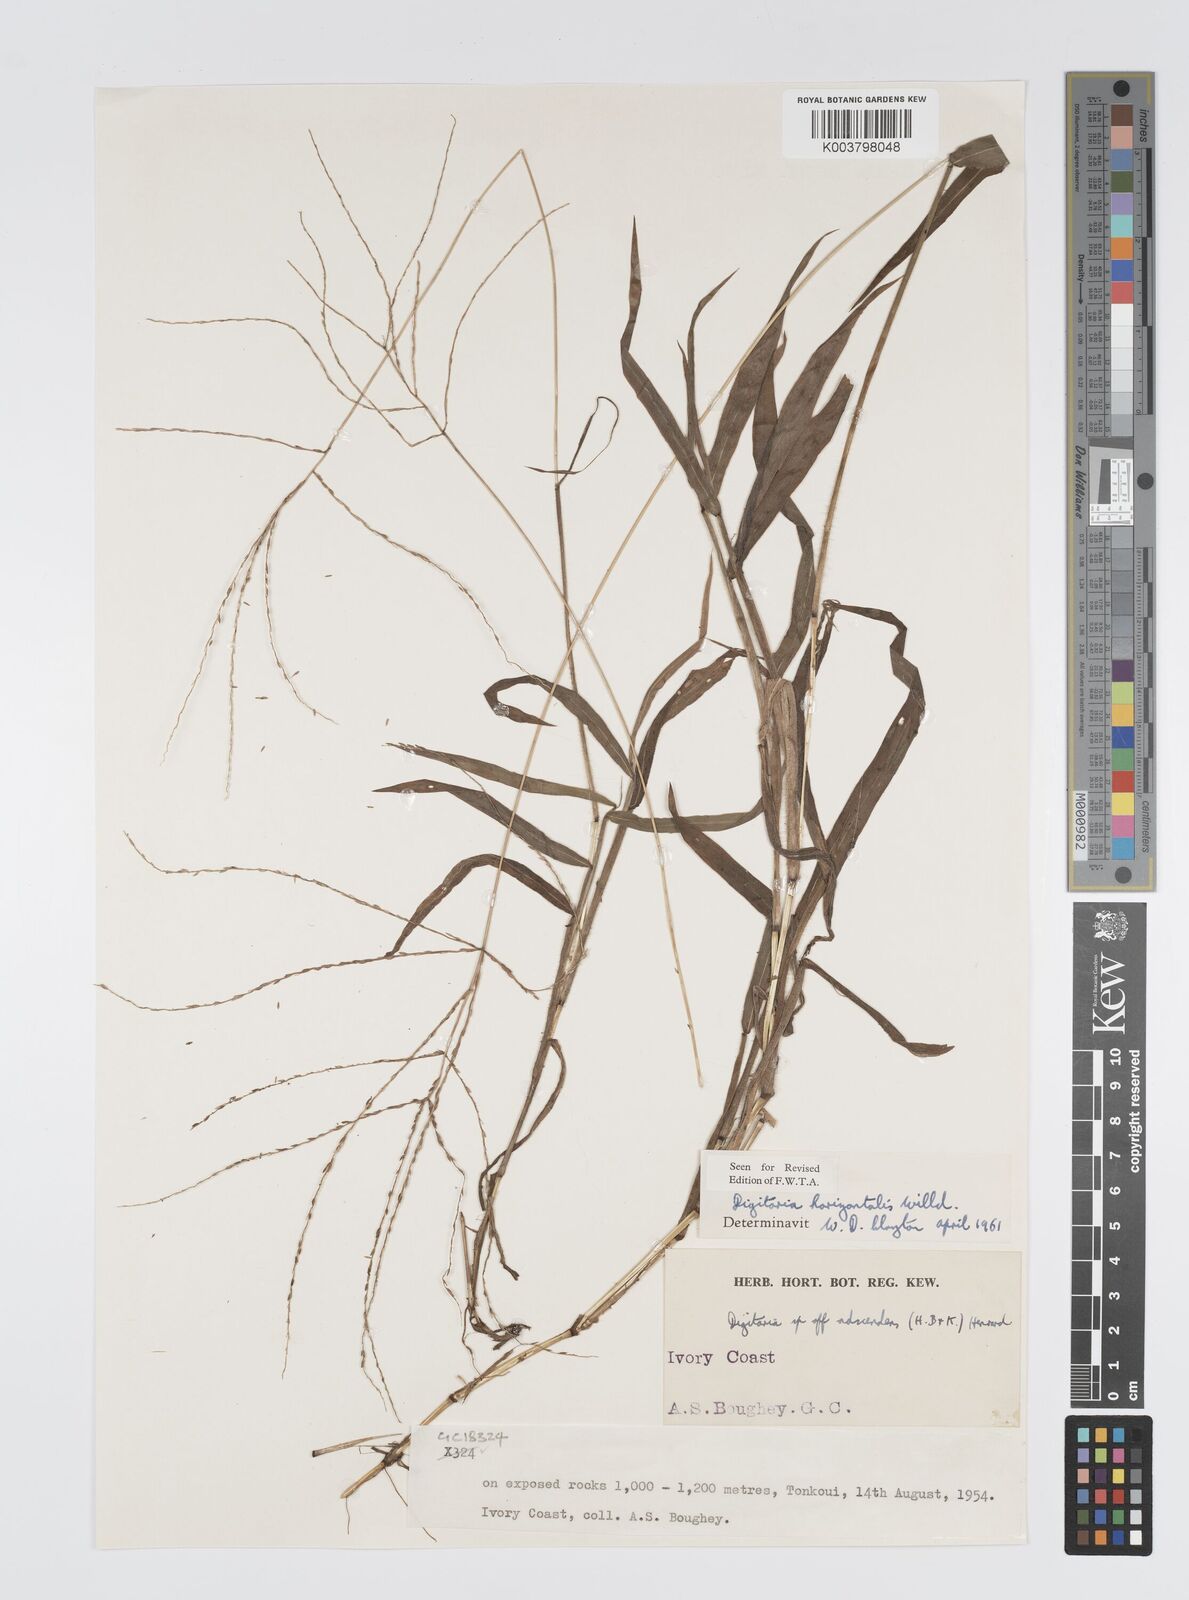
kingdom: Plantae
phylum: Tracheophyta
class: Liliopsida
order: Poales
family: Poaceae
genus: Digitaria
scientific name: Digitaria horizontalis
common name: Jamaican crabgrass
